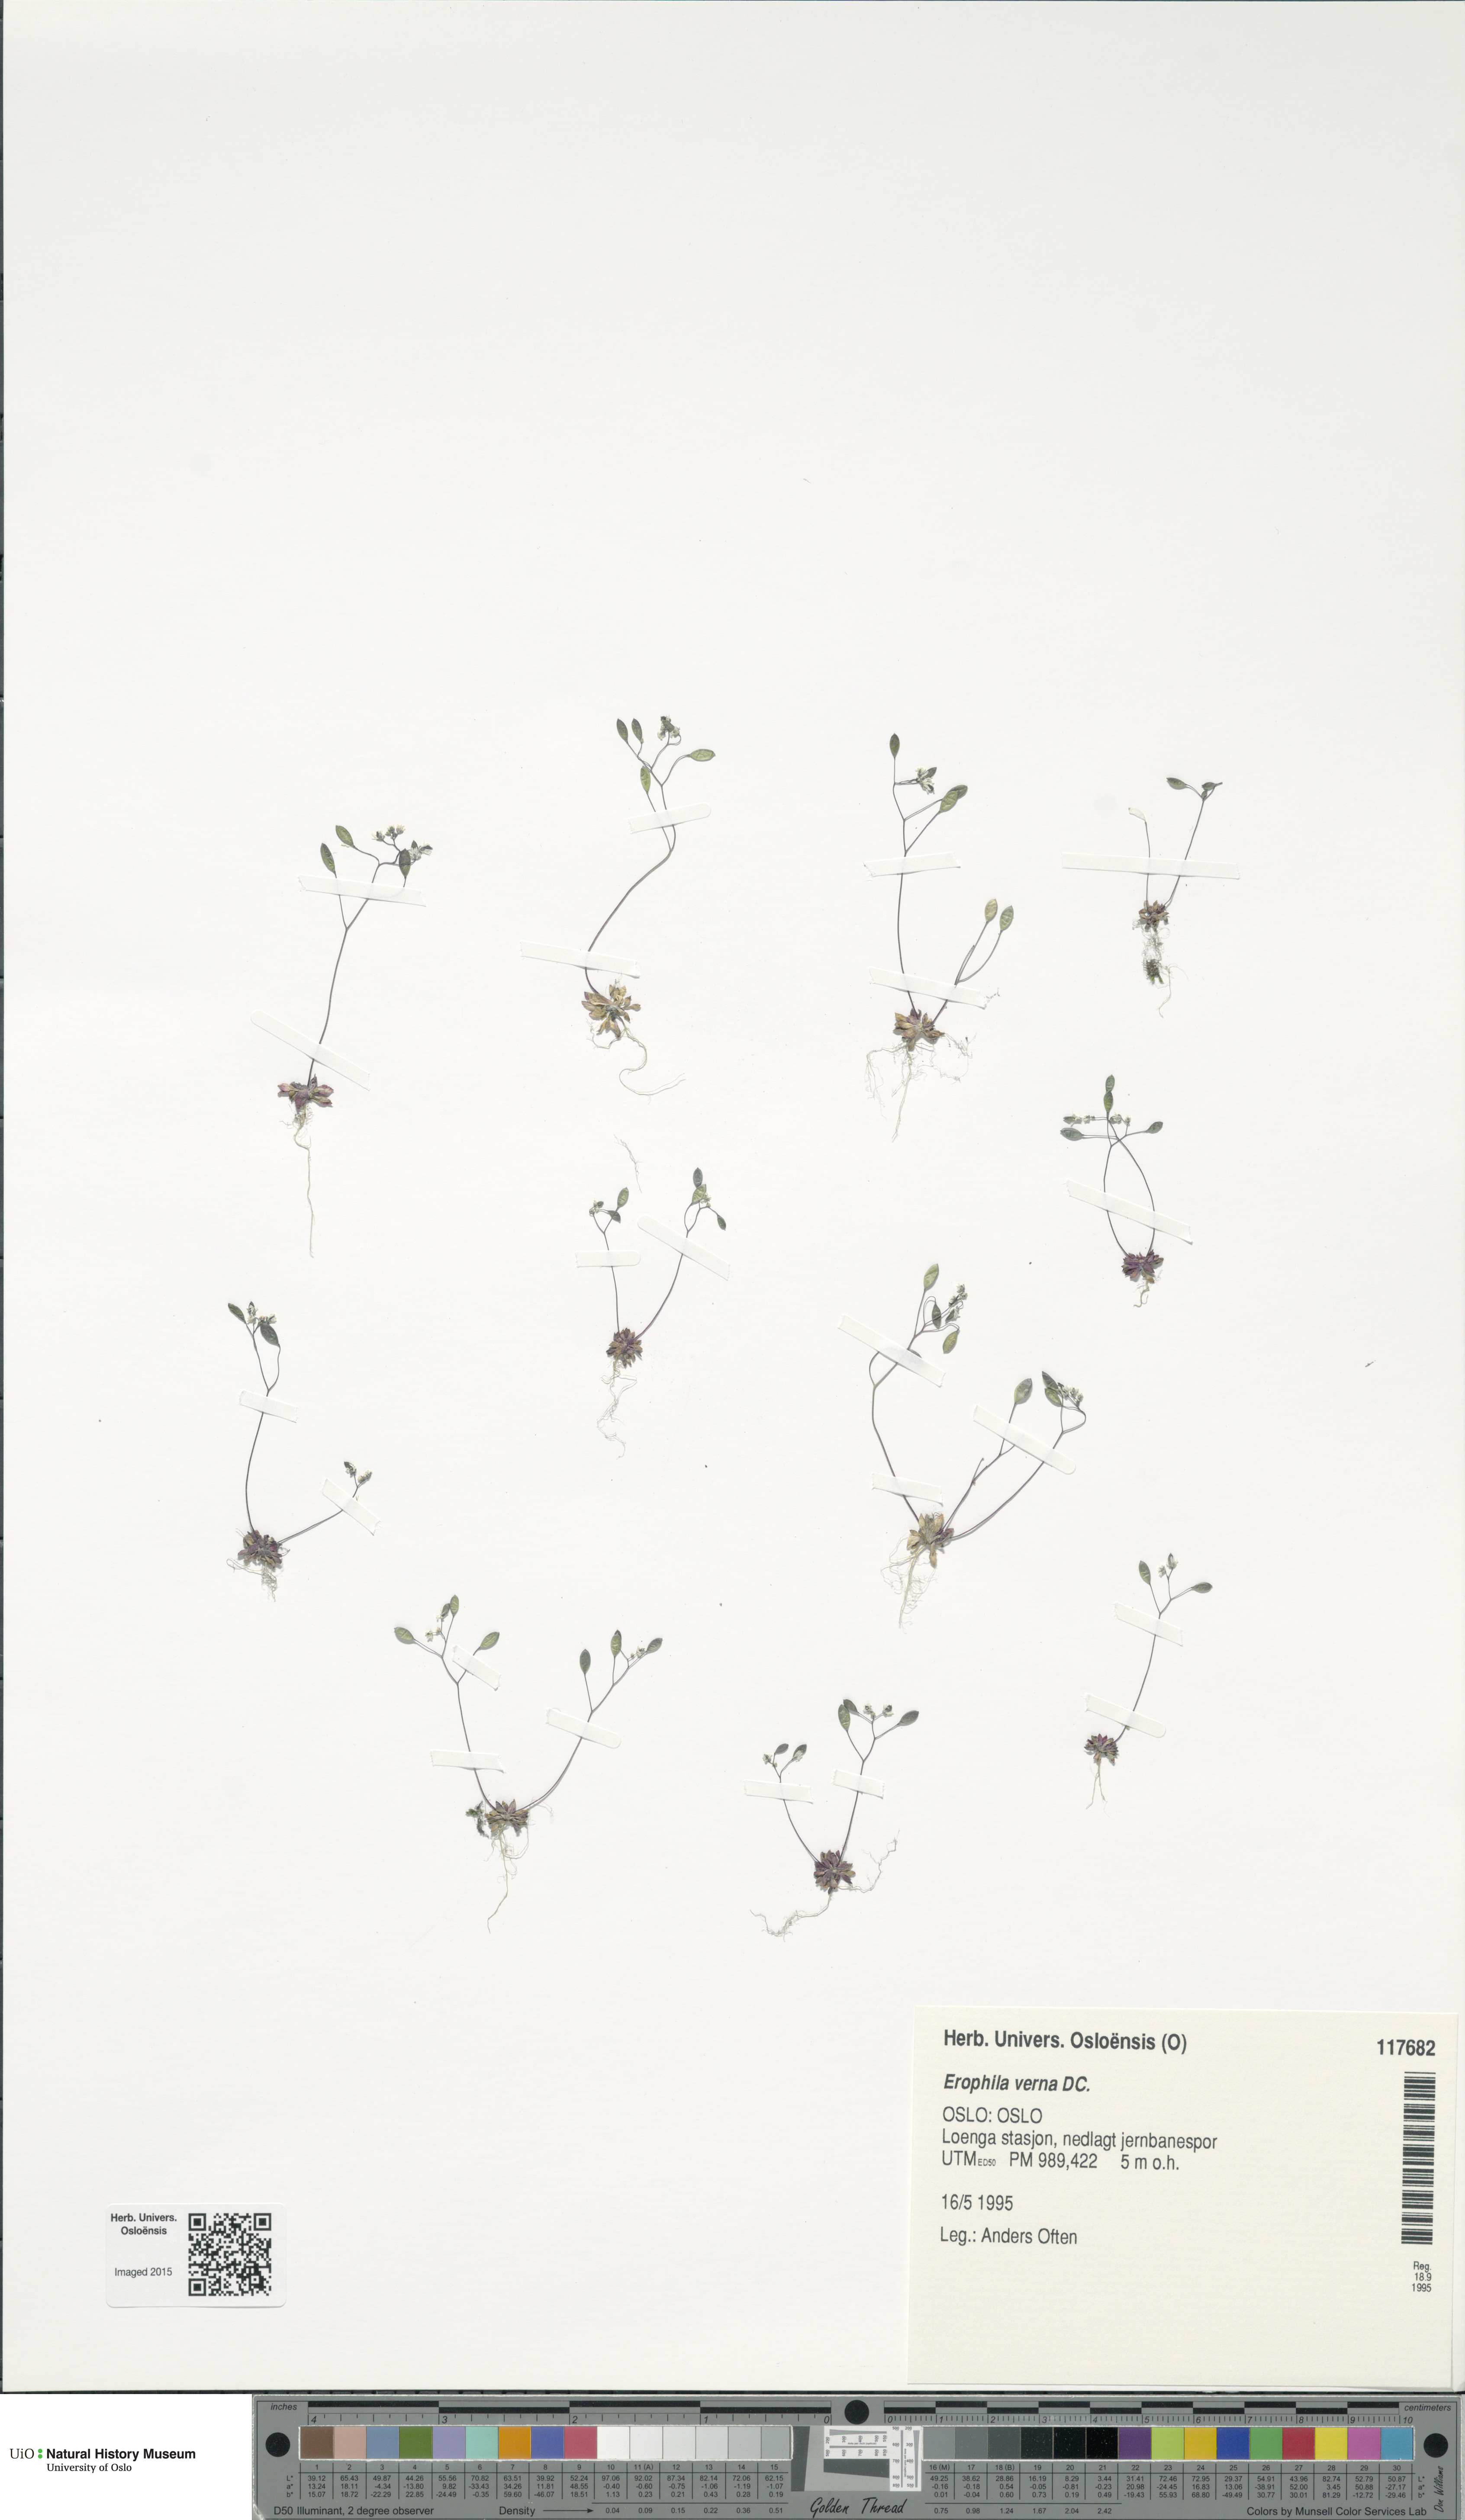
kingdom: Plantae
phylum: Tracheophyta
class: Magnoliopsida
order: Brassicales
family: Brassicaceae
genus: Draba
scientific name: Draba verna
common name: Spring draba
